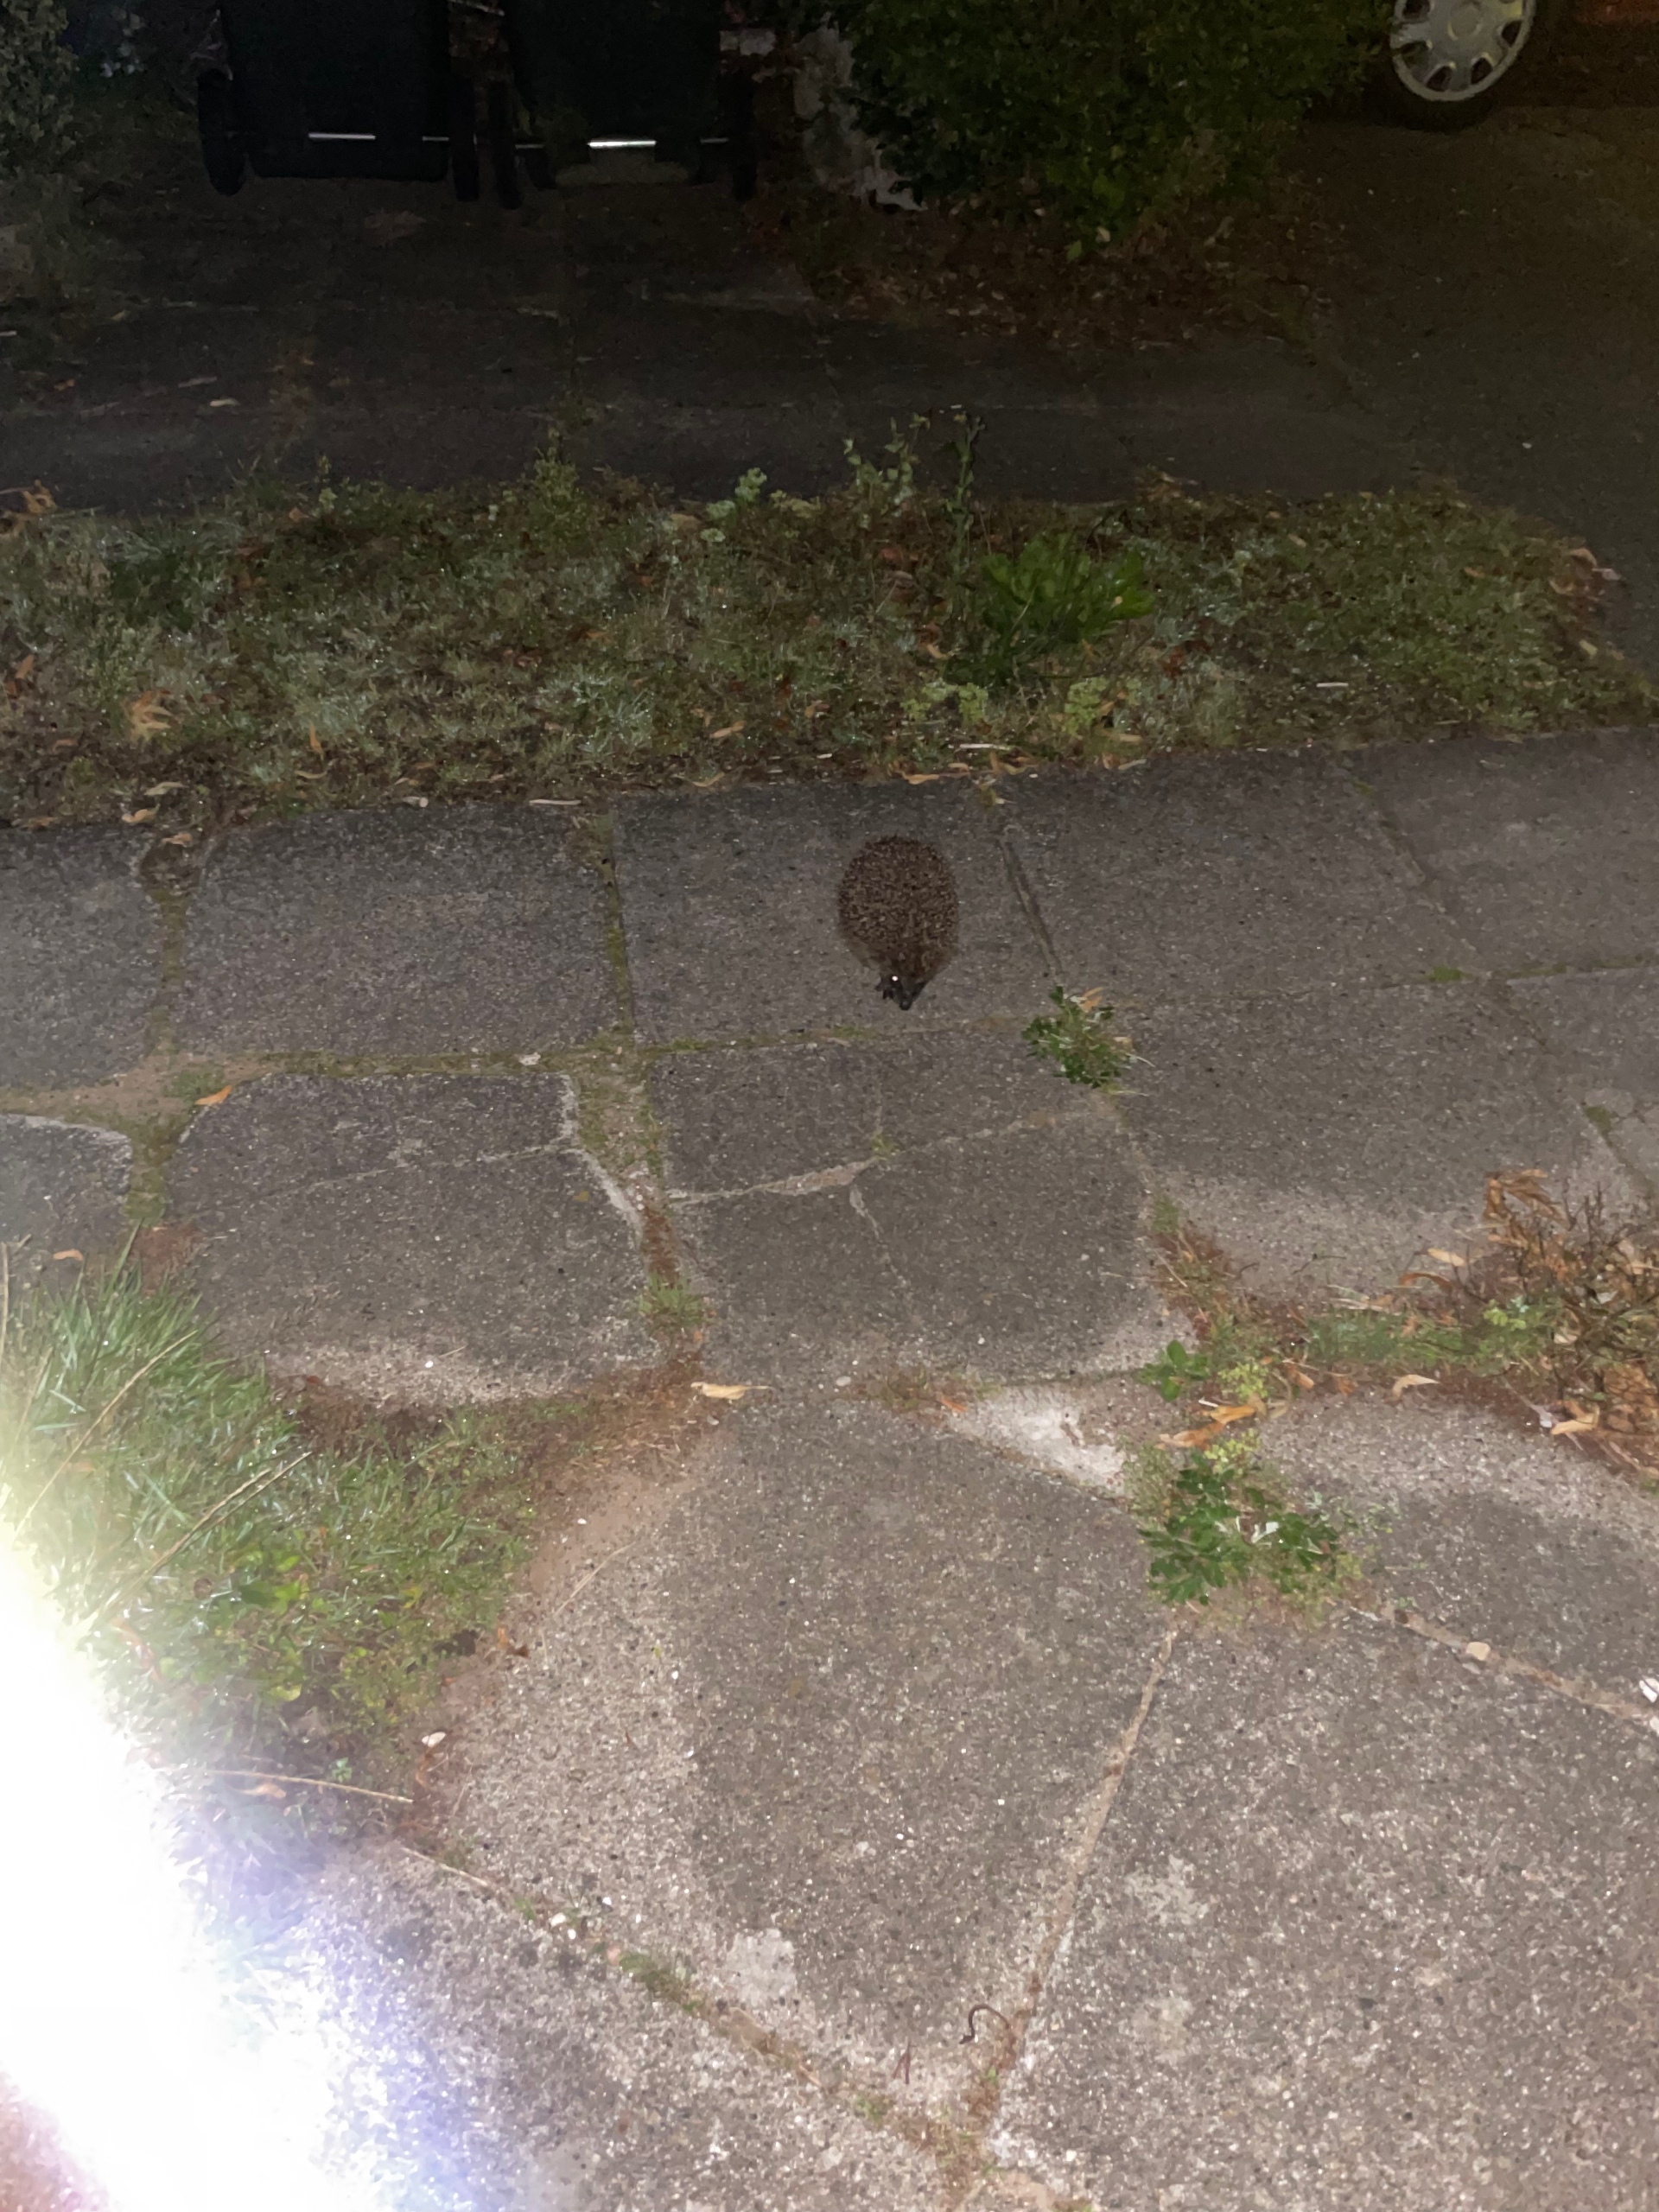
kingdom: Animalia
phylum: Chordata
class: Mammalia
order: Erinaceomorpha
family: Erinaceidae
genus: Erinaceus
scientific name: Erinaceus europaeus
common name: Pindsvin
